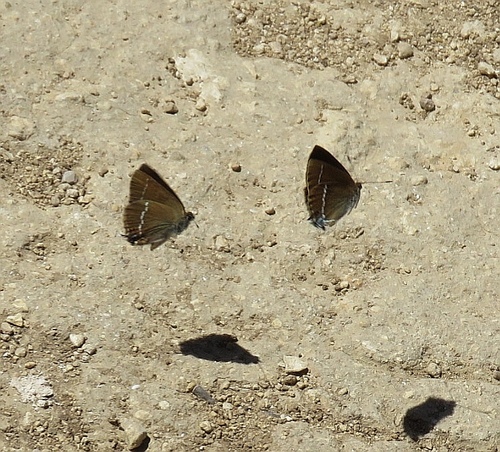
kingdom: Animalia
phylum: Arthropoda
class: Insecta
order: Lepidoptera
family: Lycaenidae
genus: Tuttiola
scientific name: Tuttiola spini
